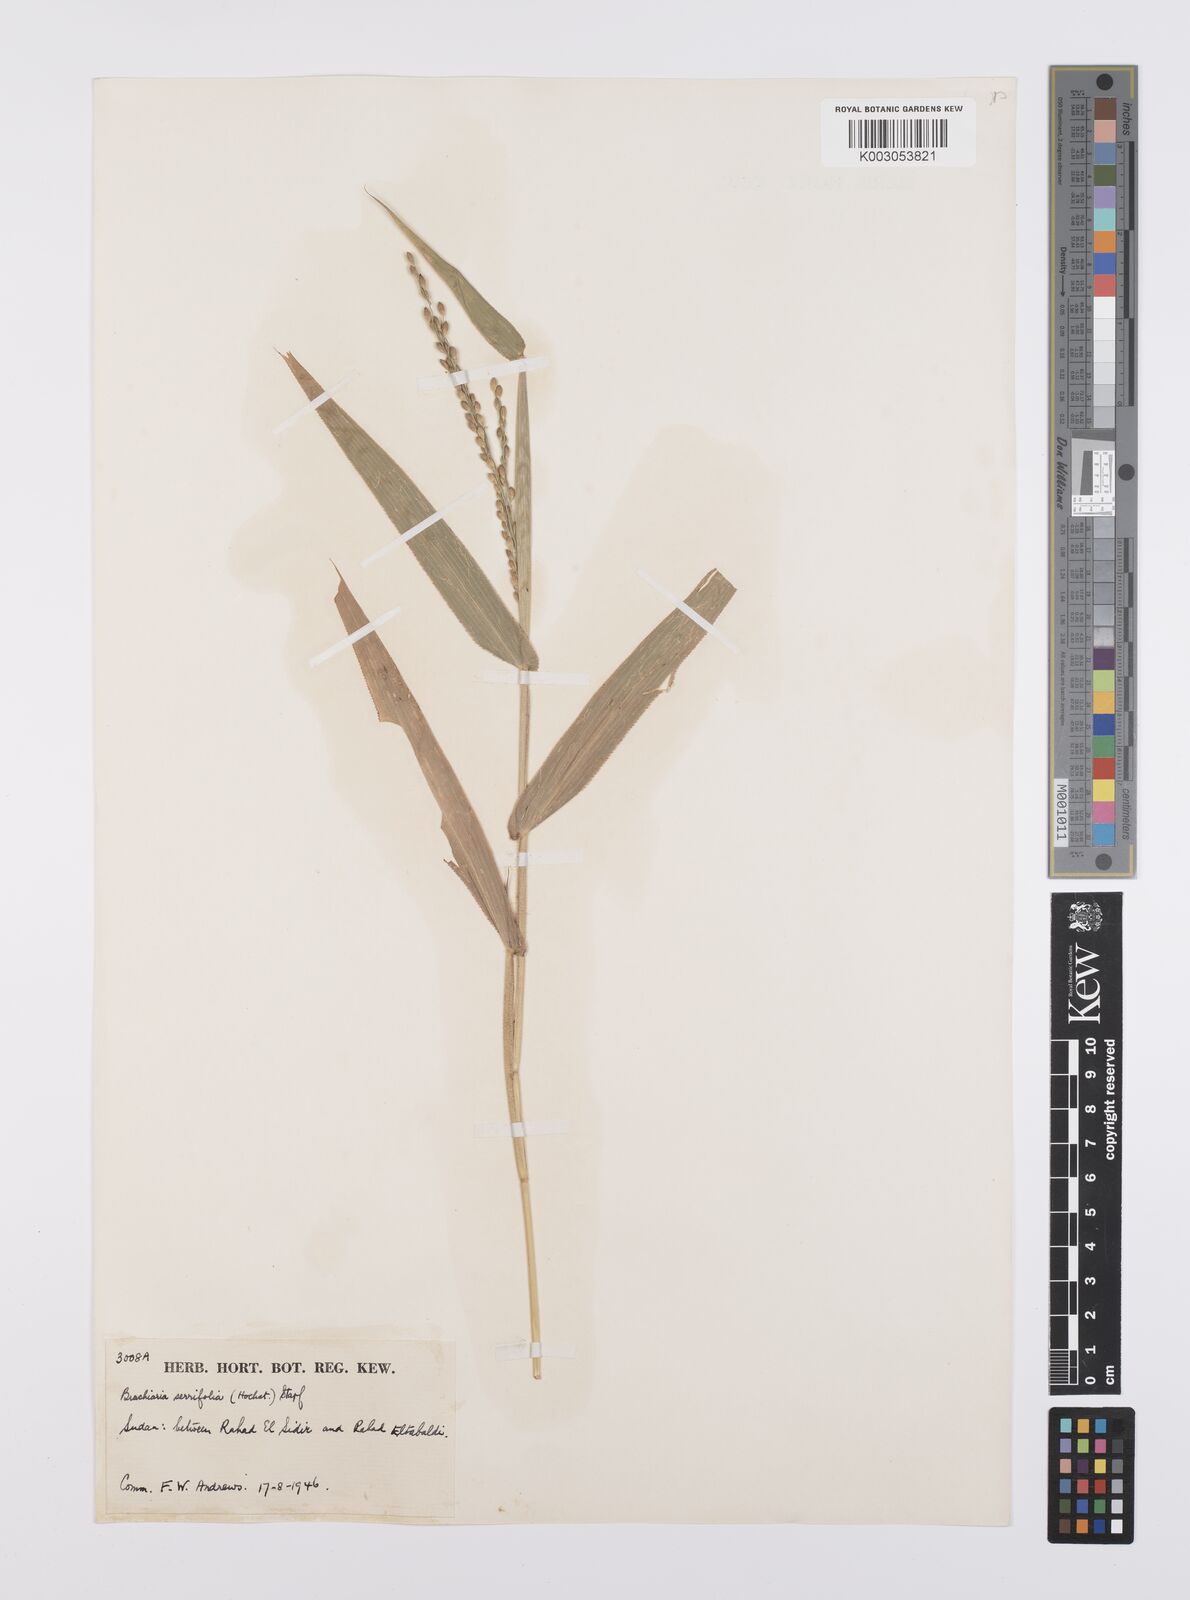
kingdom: Plantae
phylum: Tracheophyta
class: Liliopsida
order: Poales
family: Poaceae
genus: Urochloa
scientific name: Urochloa serrifolia
